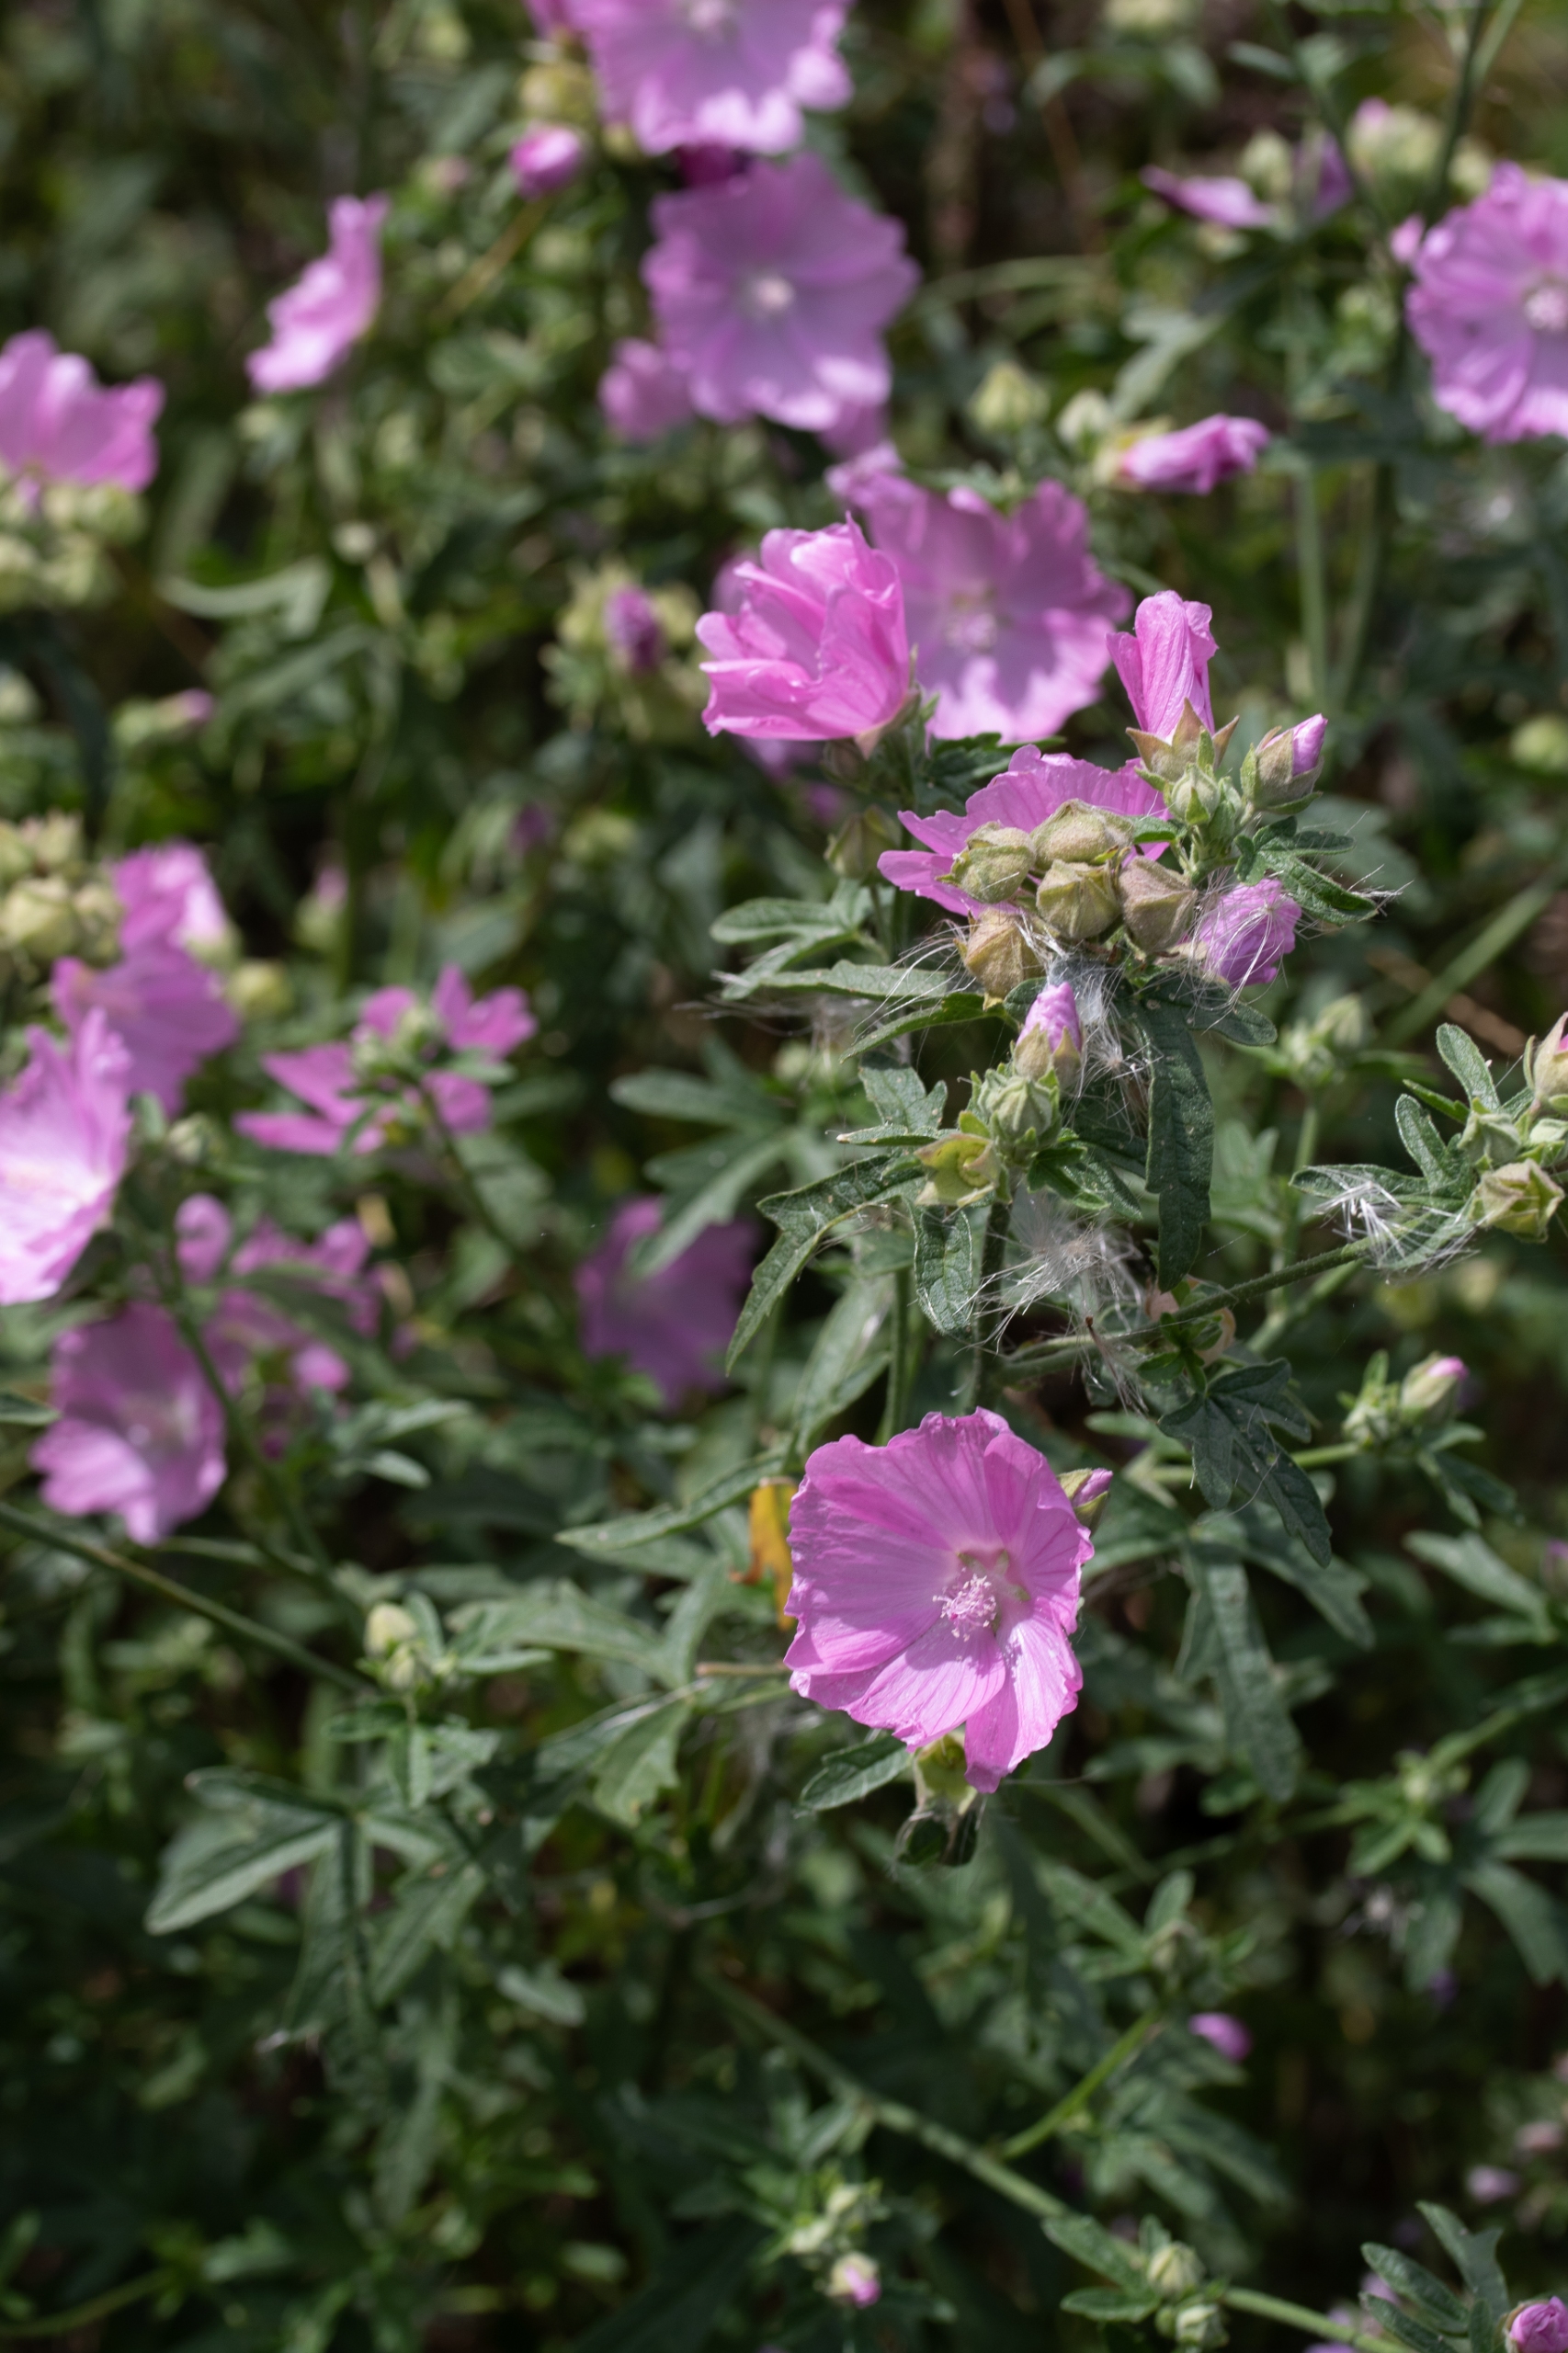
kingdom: Plantae
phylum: Tracheophyta
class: Magnoliopsida
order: Malvales
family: Malvaceae
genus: Malva
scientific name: Malva alcea
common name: Rosen-katost
